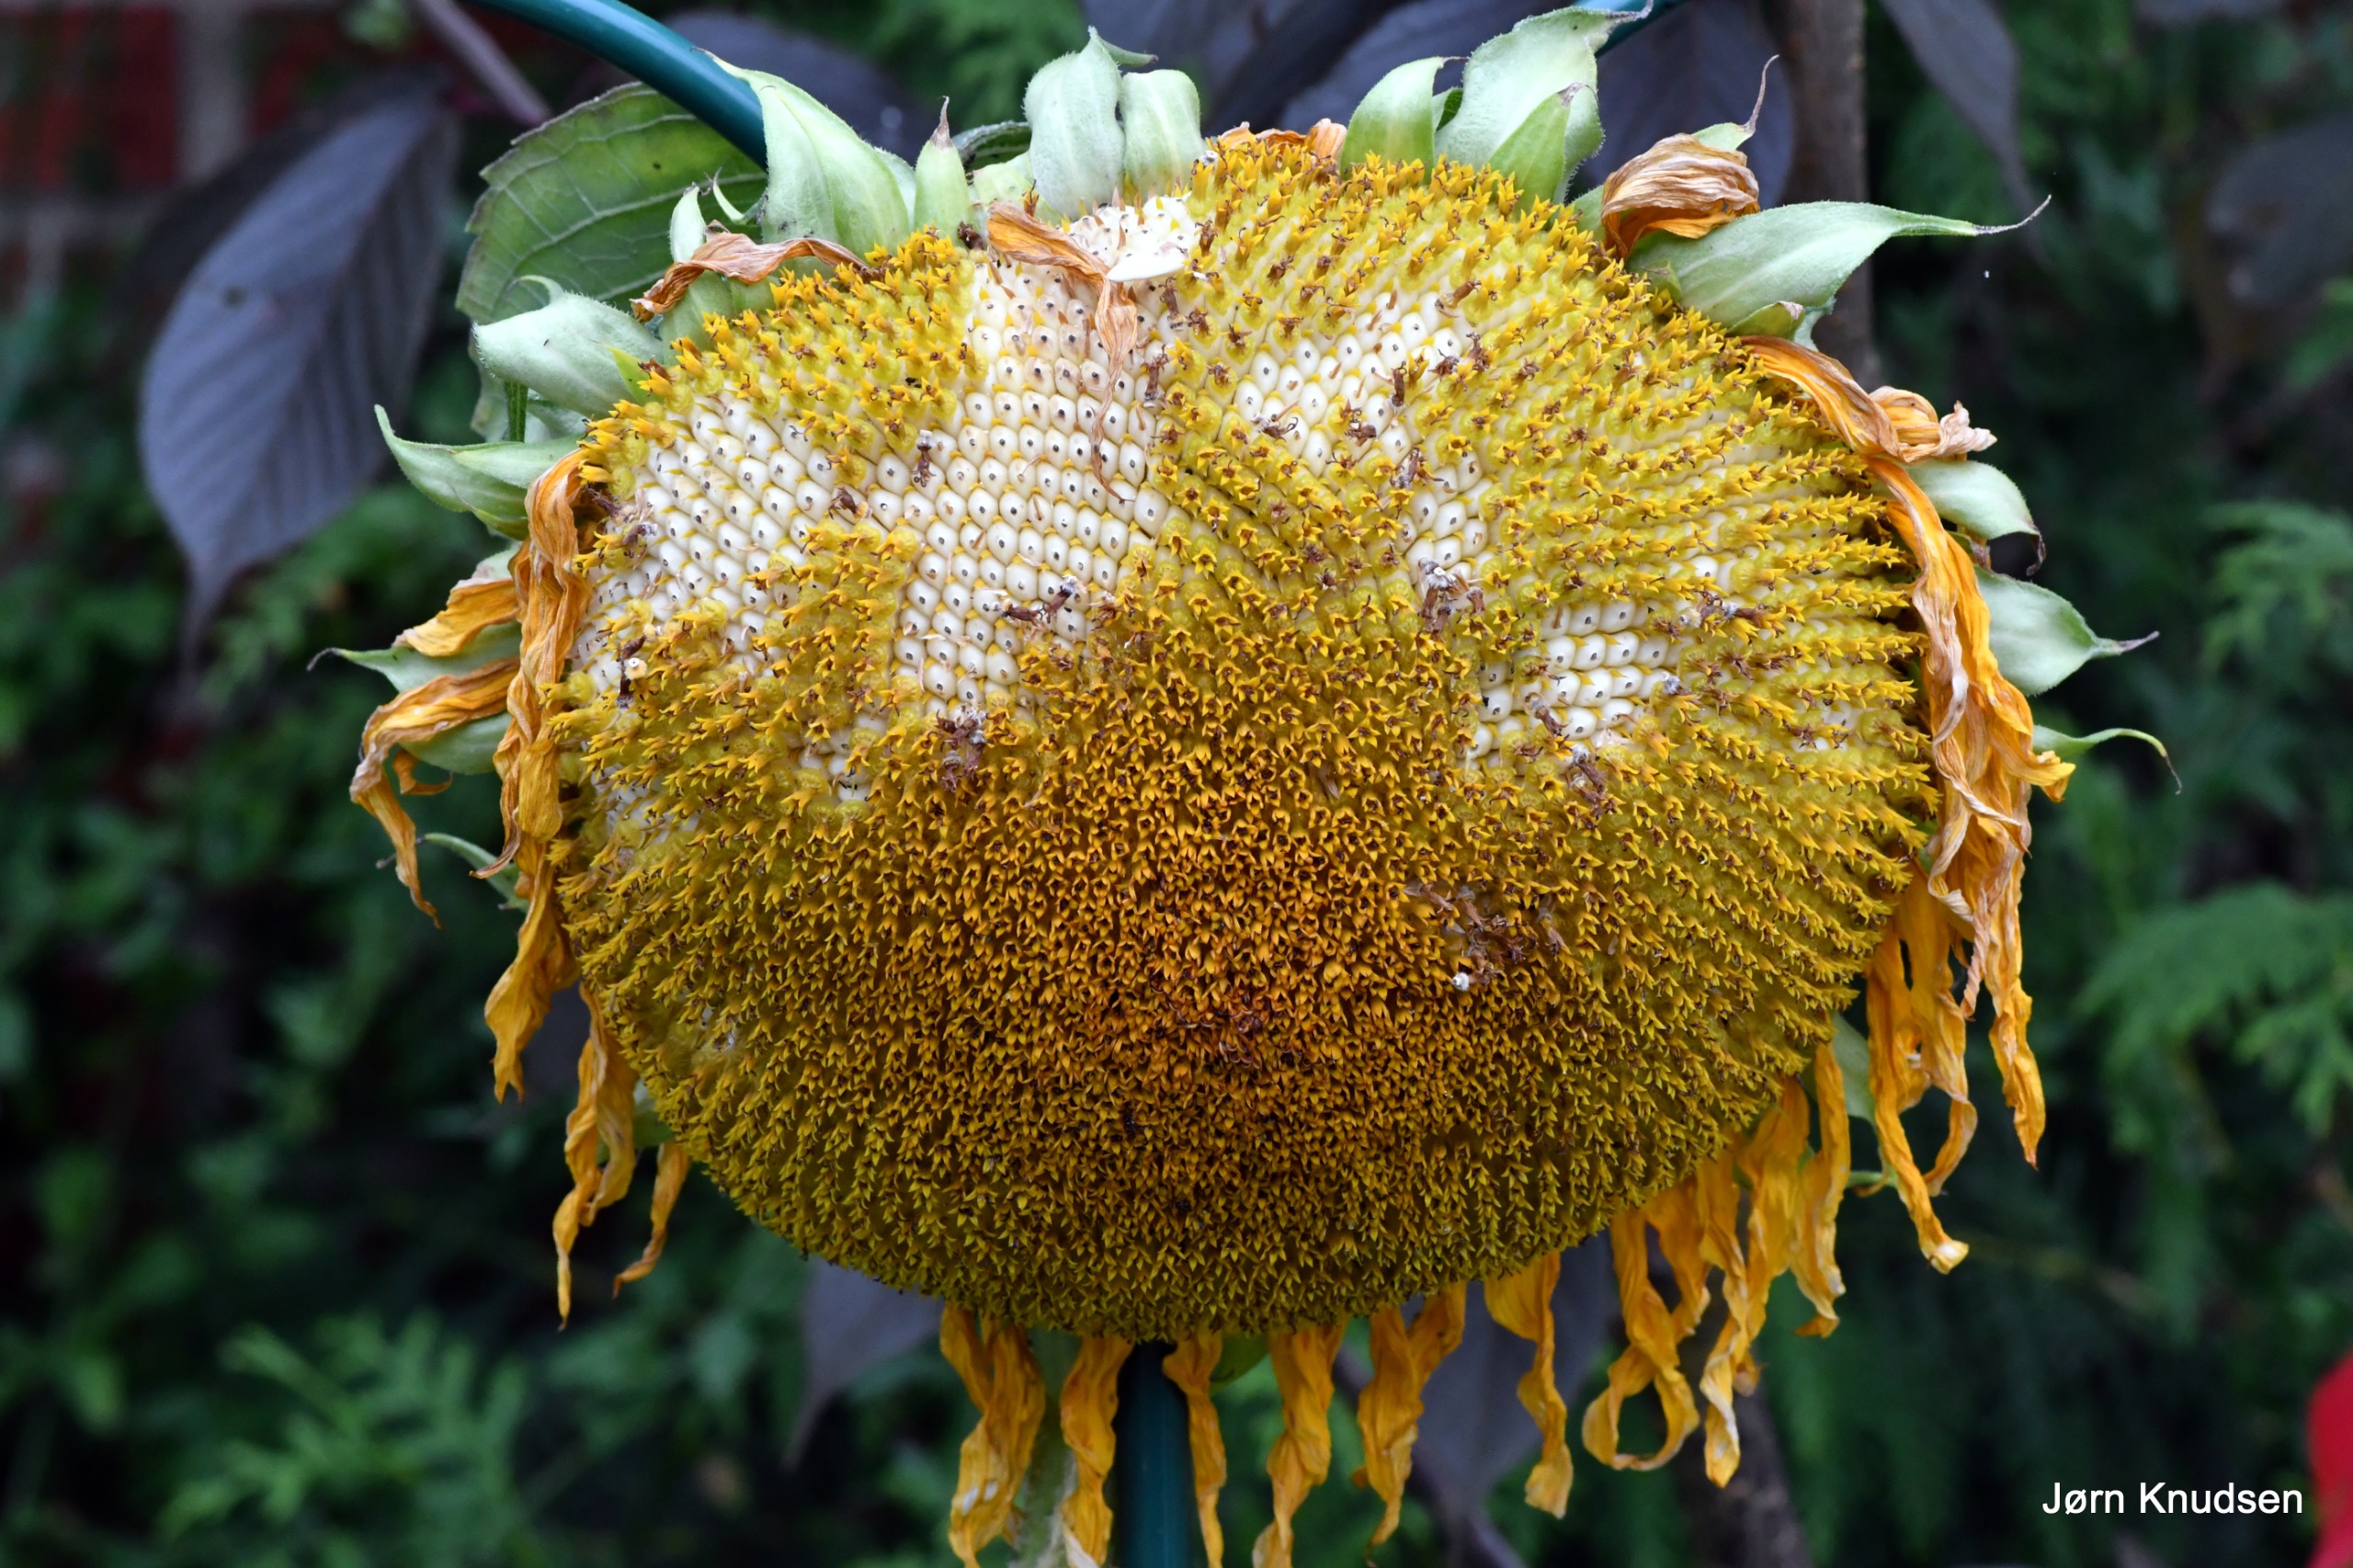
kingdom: Plantae
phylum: Tracheophyta
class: Magnoliopsida
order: Asterales
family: Asteraceae
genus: Helianthus
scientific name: Helianthus annuus
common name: Solsikke
